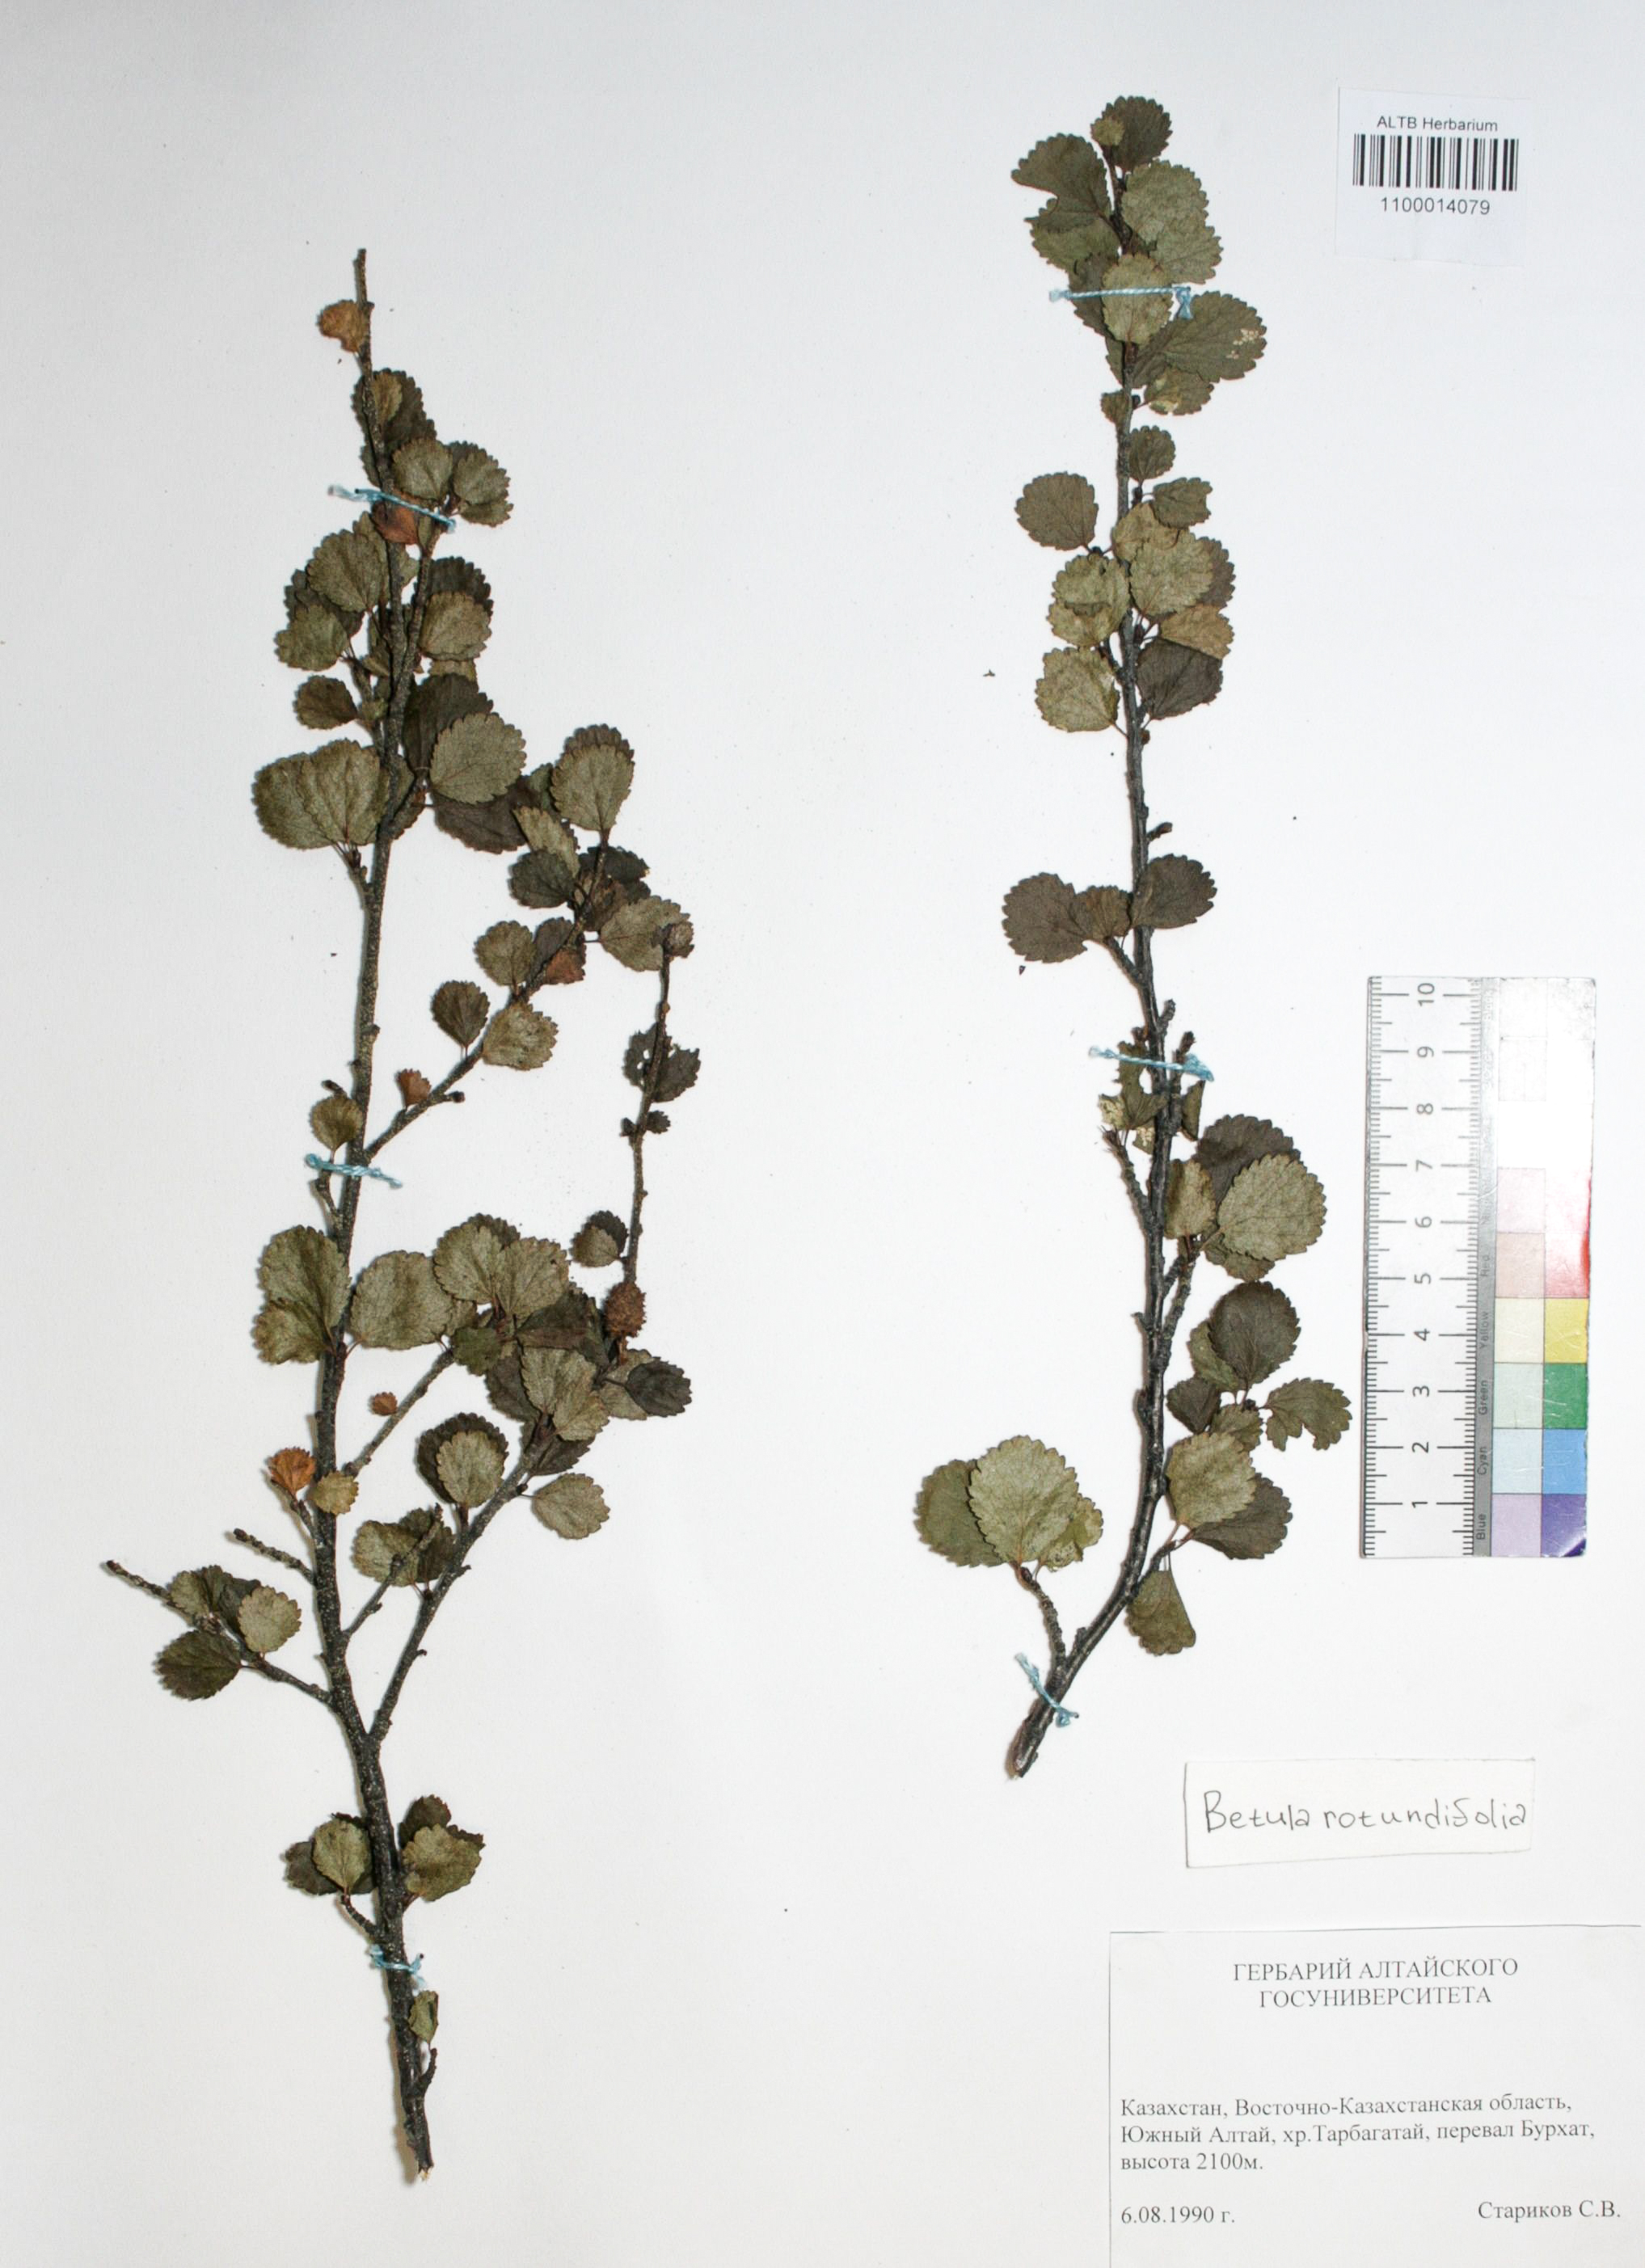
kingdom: Plantae
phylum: Tracheophyta
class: Magnoliopsida
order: Fagales
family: Betulaceae
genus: Betula
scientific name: Betula glandulosa
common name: Dwarf birch
